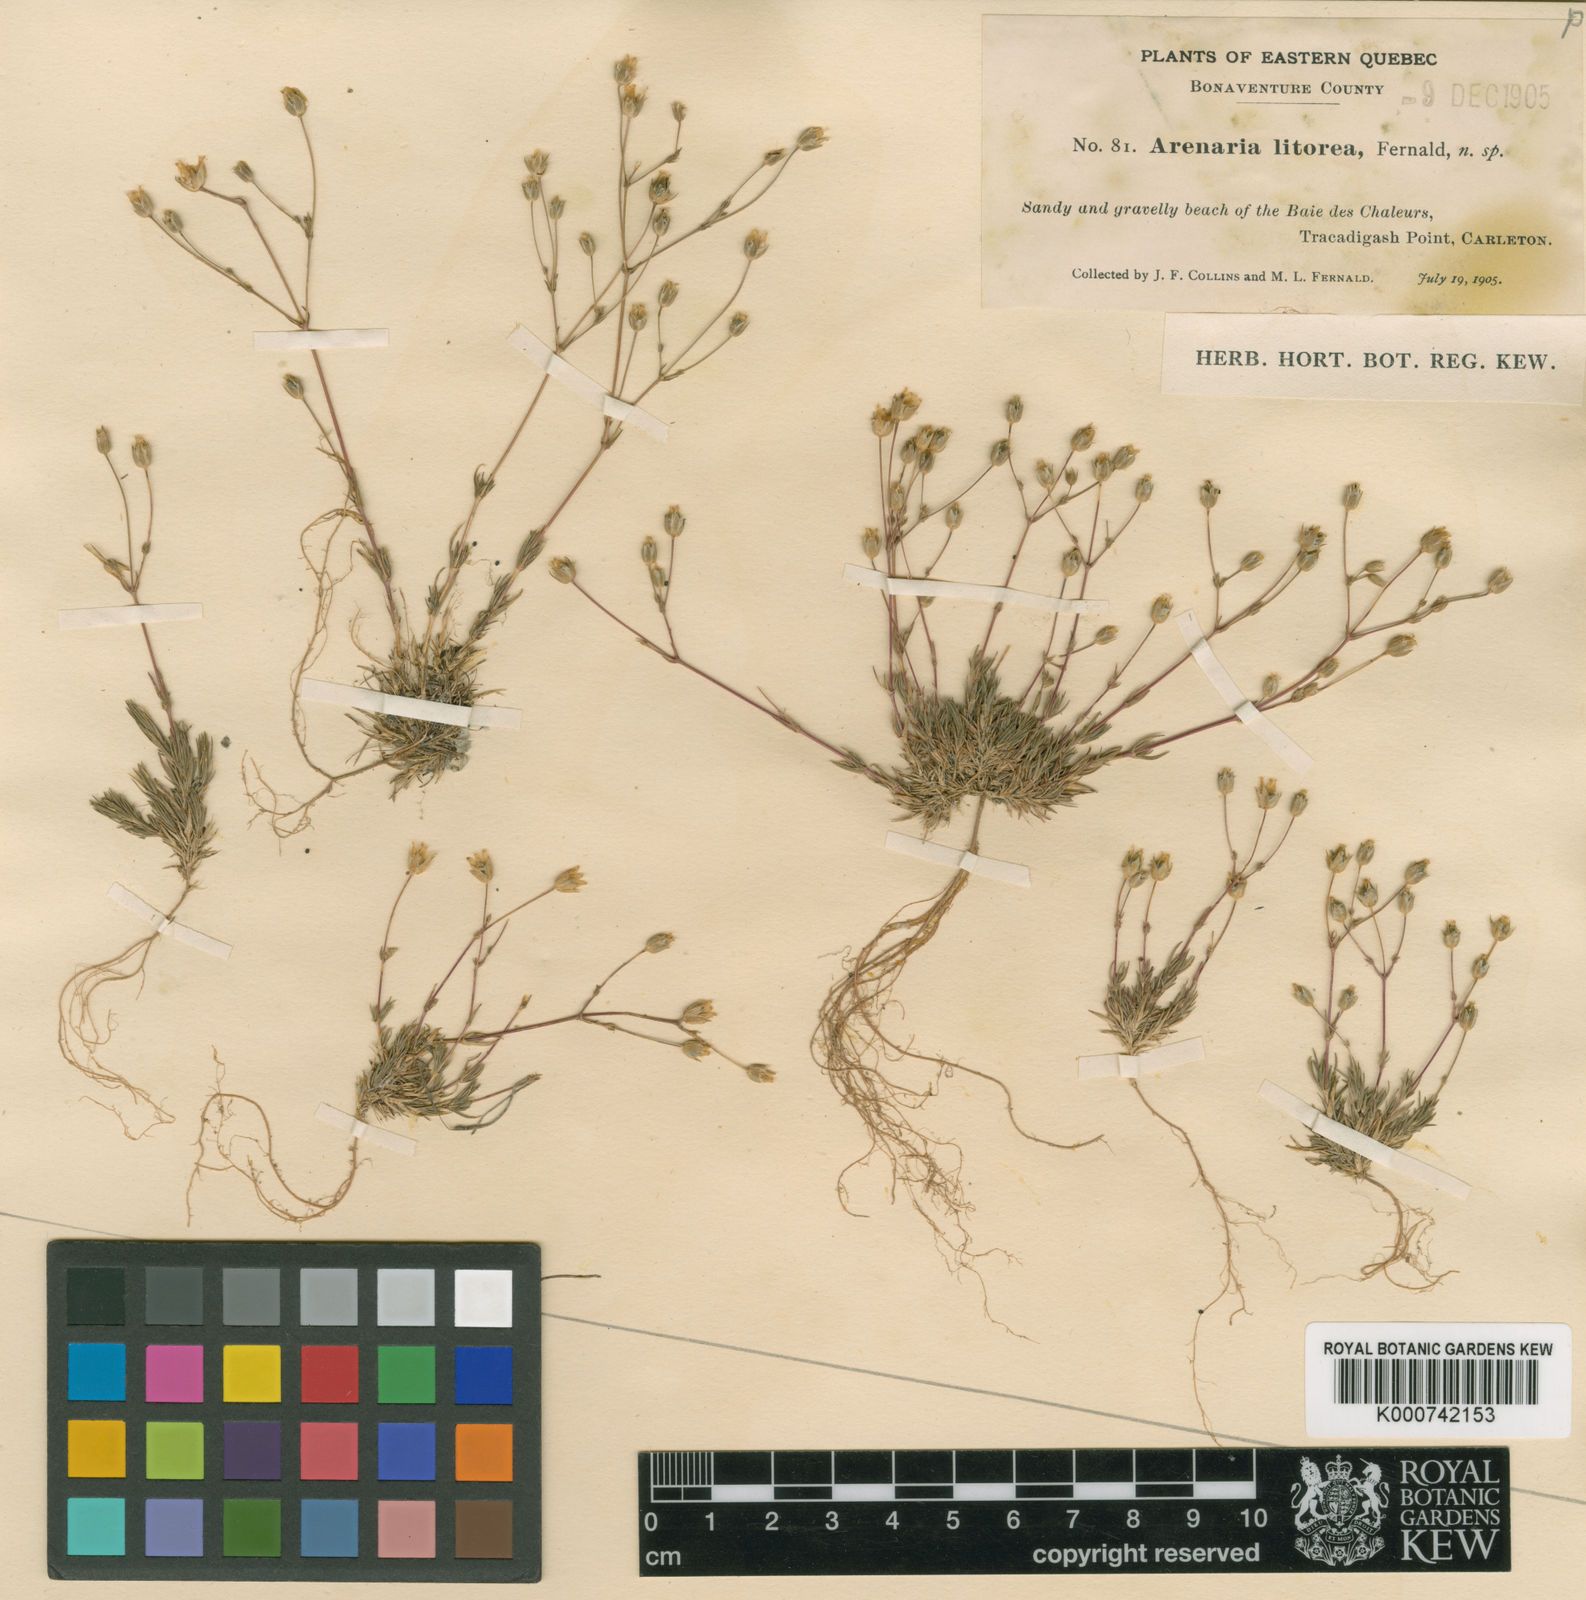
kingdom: Plantae
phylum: Tracheophyta
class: Magnoliopsida
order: Caryophyllales
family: Caryophyllaceae
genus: Sabulina
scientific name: Sabulina dawsonensis
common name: Dawson's cockle
